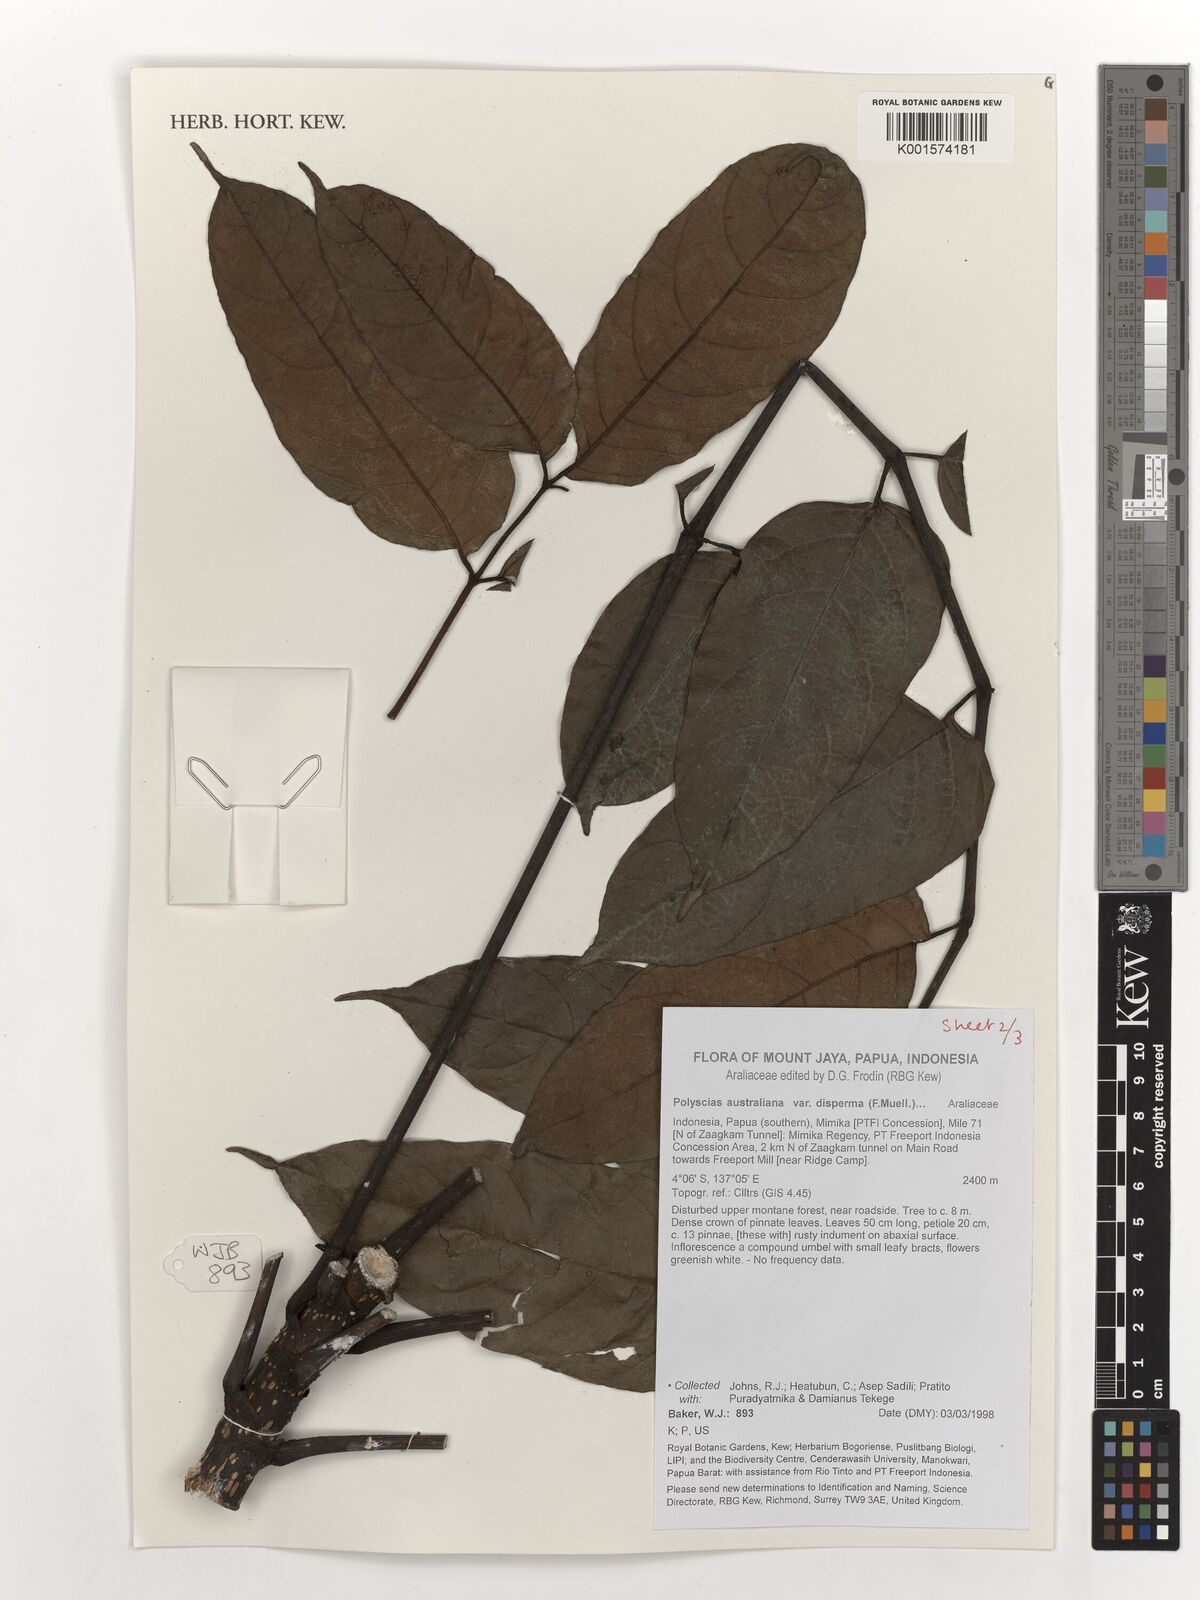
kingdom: Plantae
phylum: Tracheophyta
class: Magnoliopsida
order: Apiales
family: Araliaceae
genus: Polyscias
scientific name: Polyscias australiana
